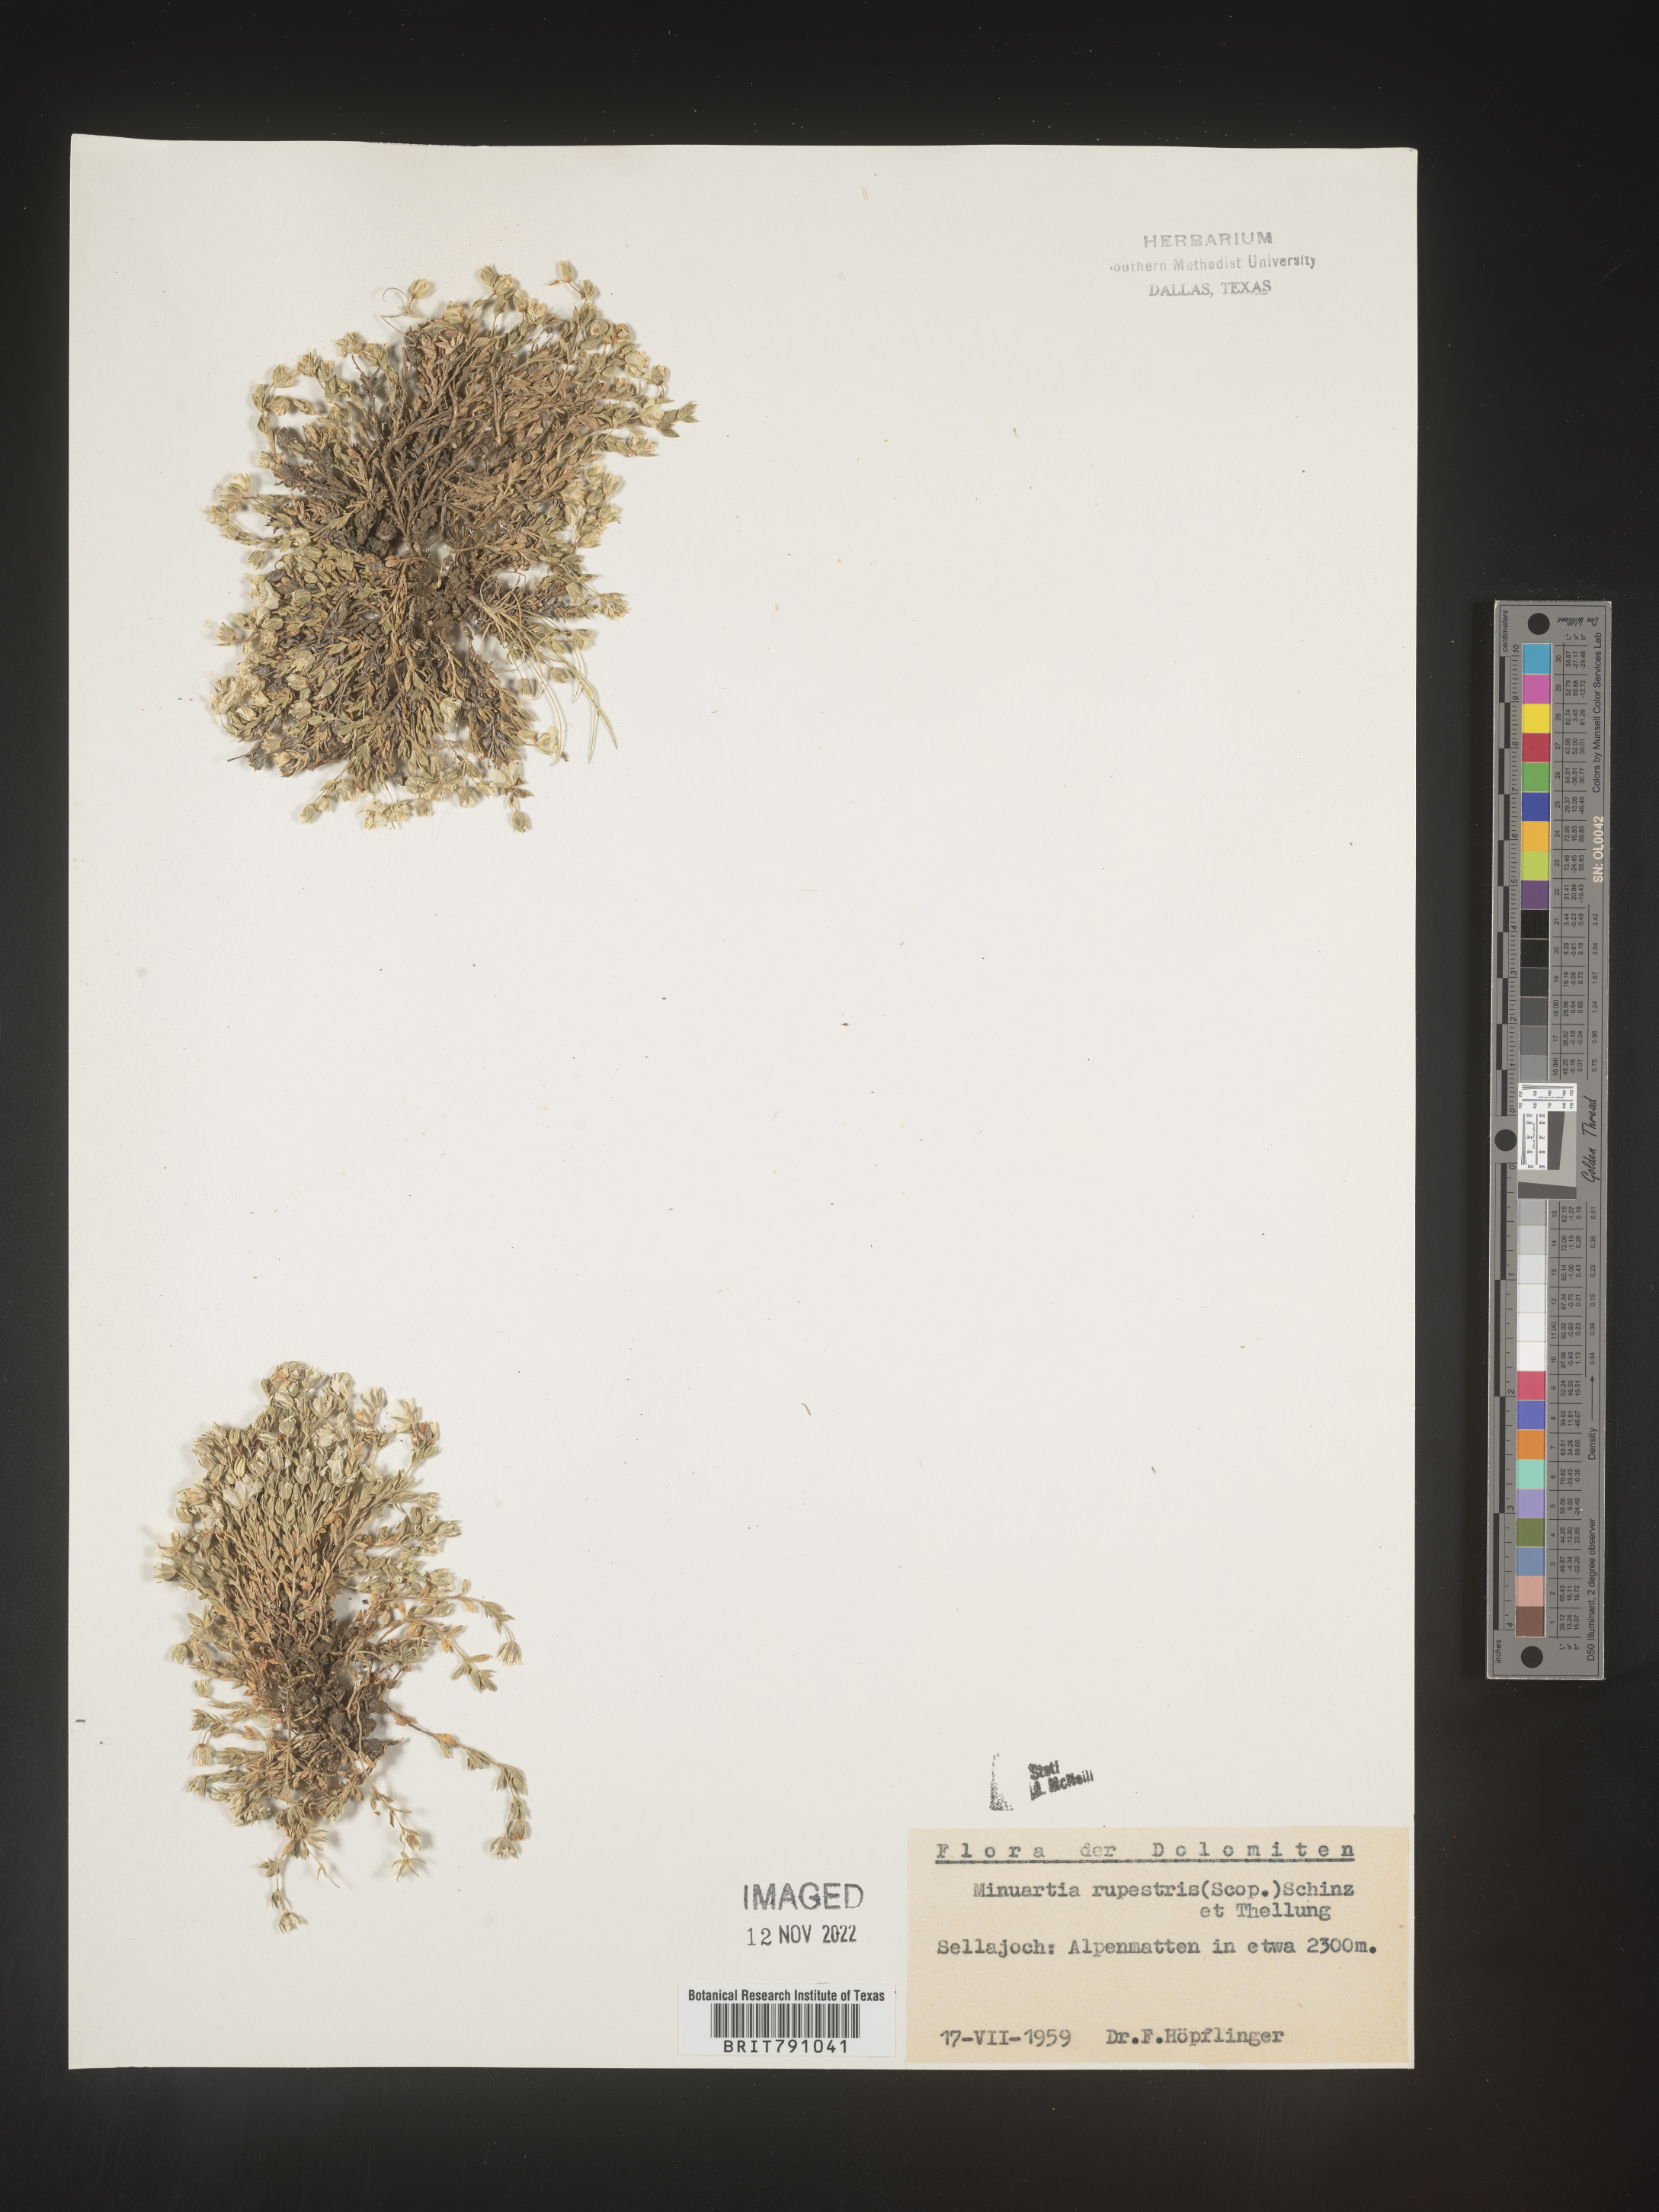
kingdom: Plantae
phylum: Tracheophyta
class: Magnoliopsida
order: Caryophyllales
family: Caryophyllaceae
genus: Minuartia
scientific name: Minuartia
